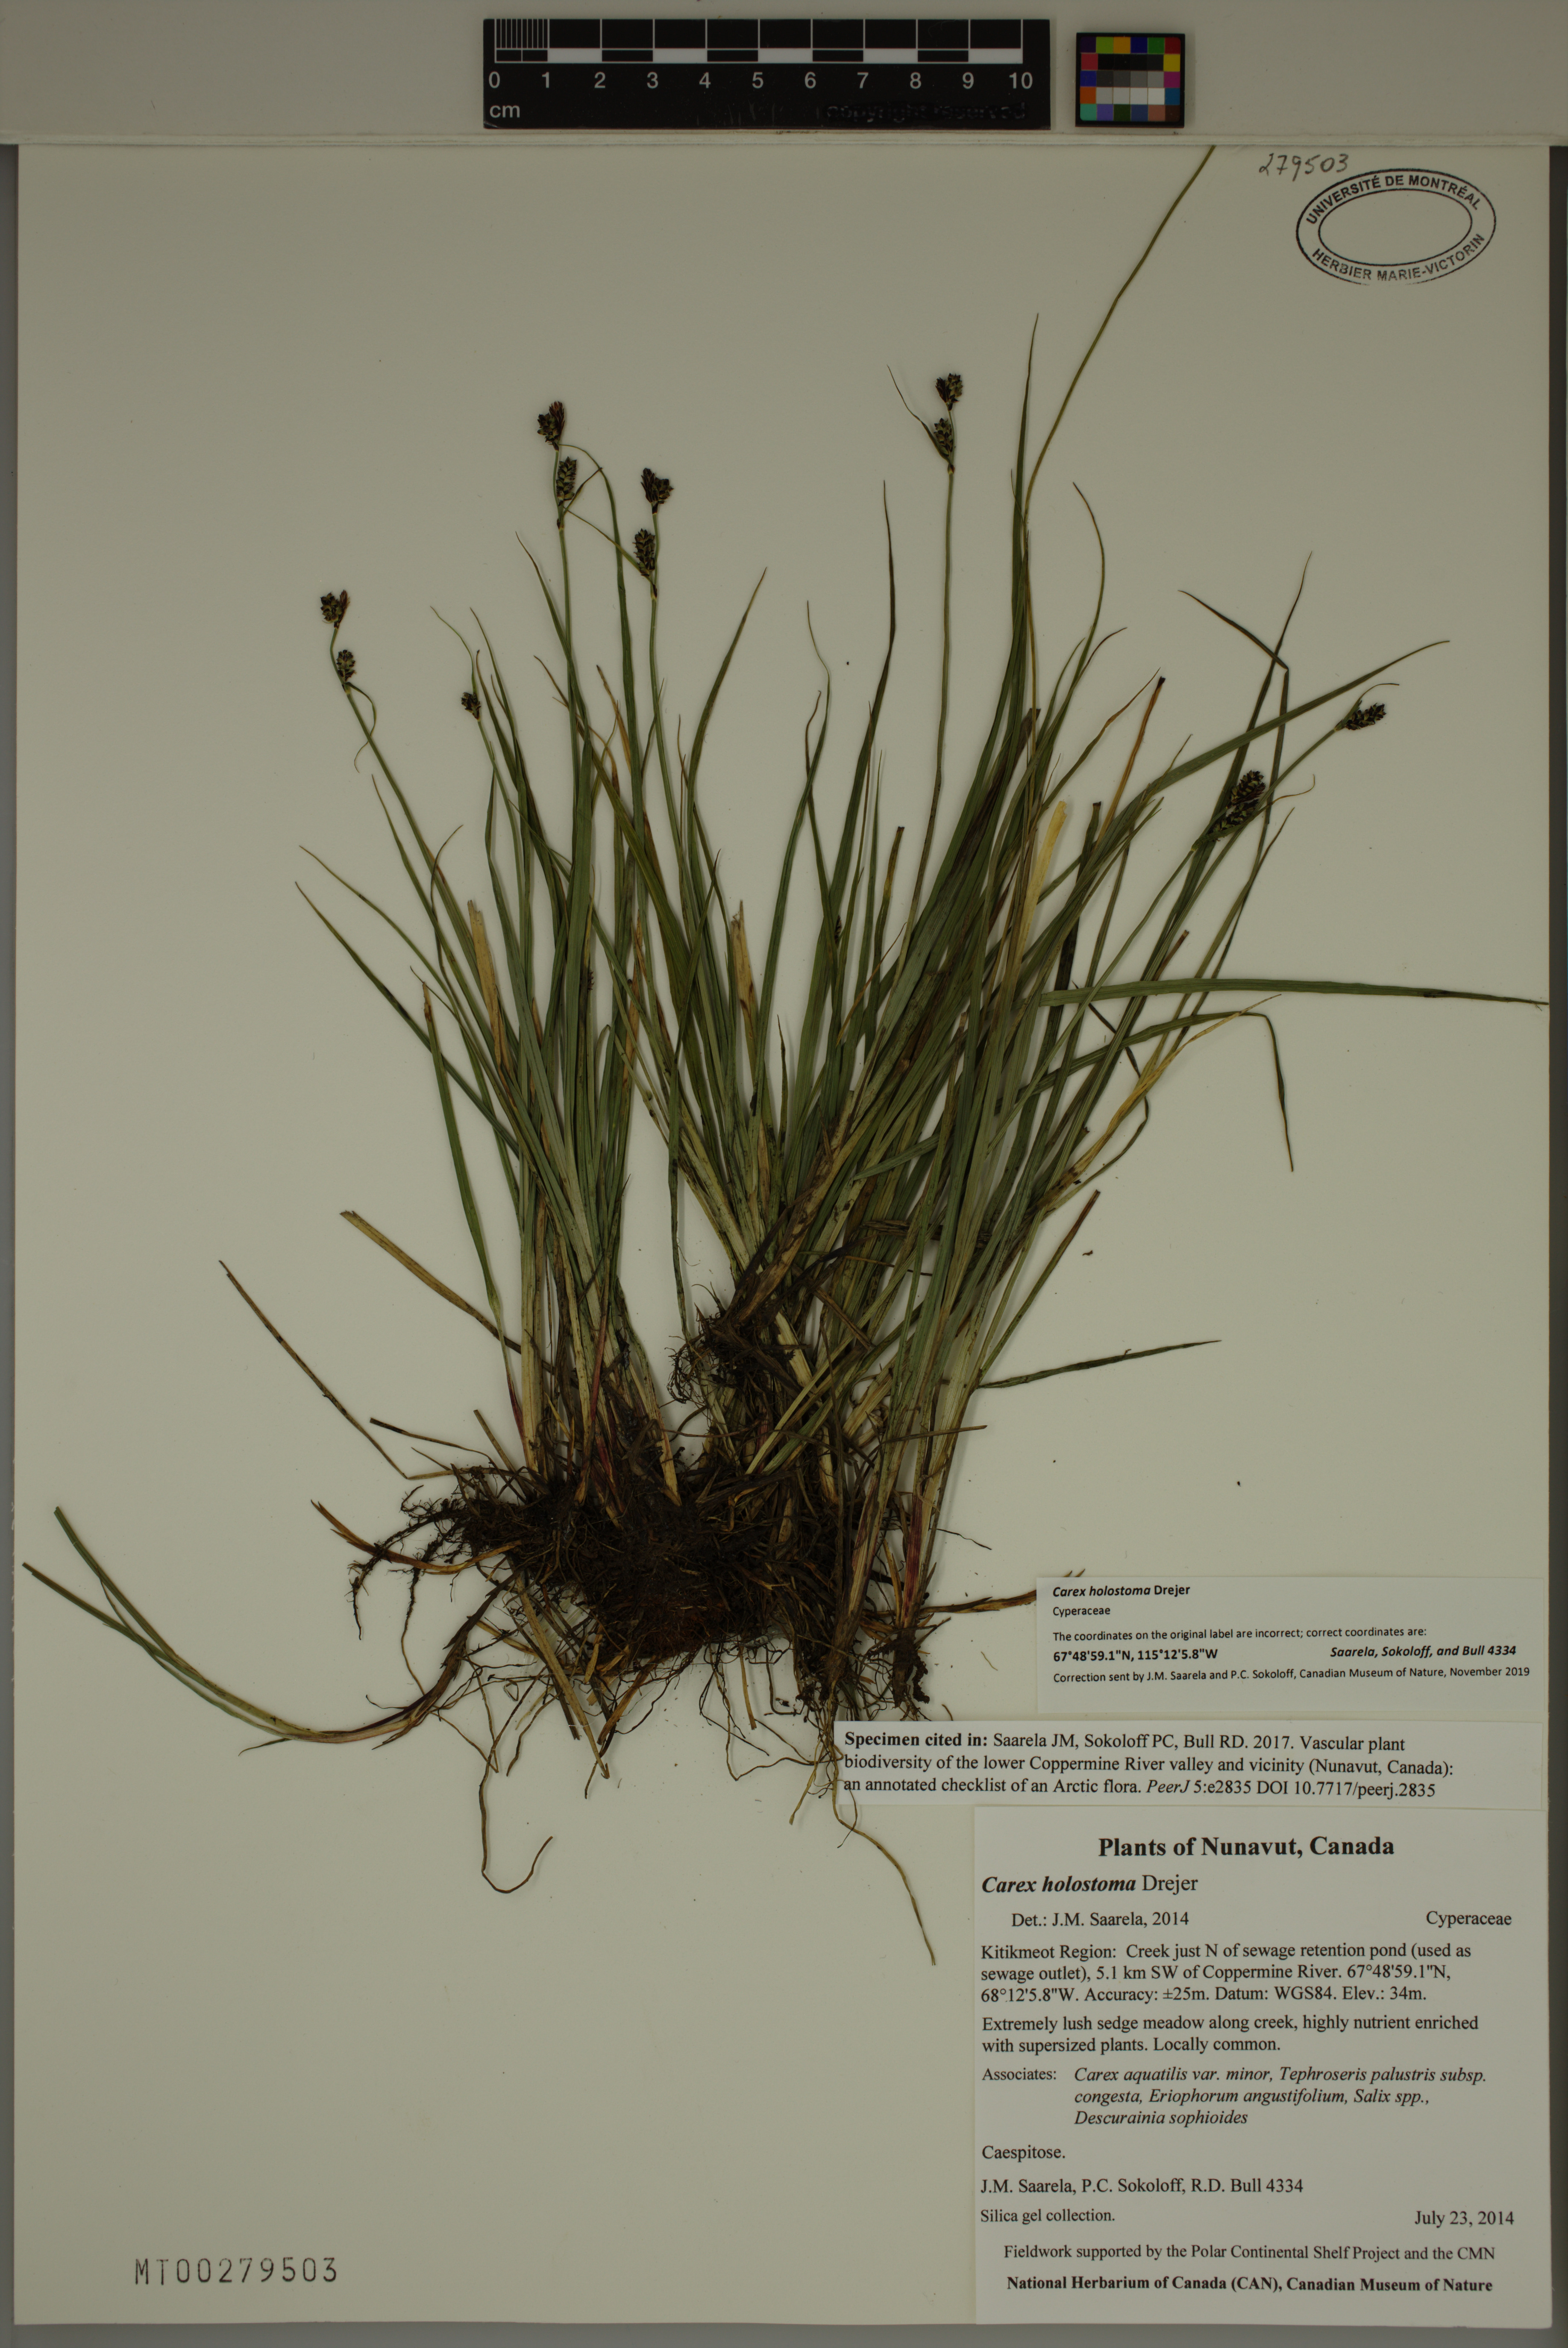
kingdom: Plantae
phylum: Tracheophyta
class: Liliopsida
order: Poales
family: Cyperaceae
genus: Carex
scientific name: Carex holostoma
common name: Arctic marsh sedge
